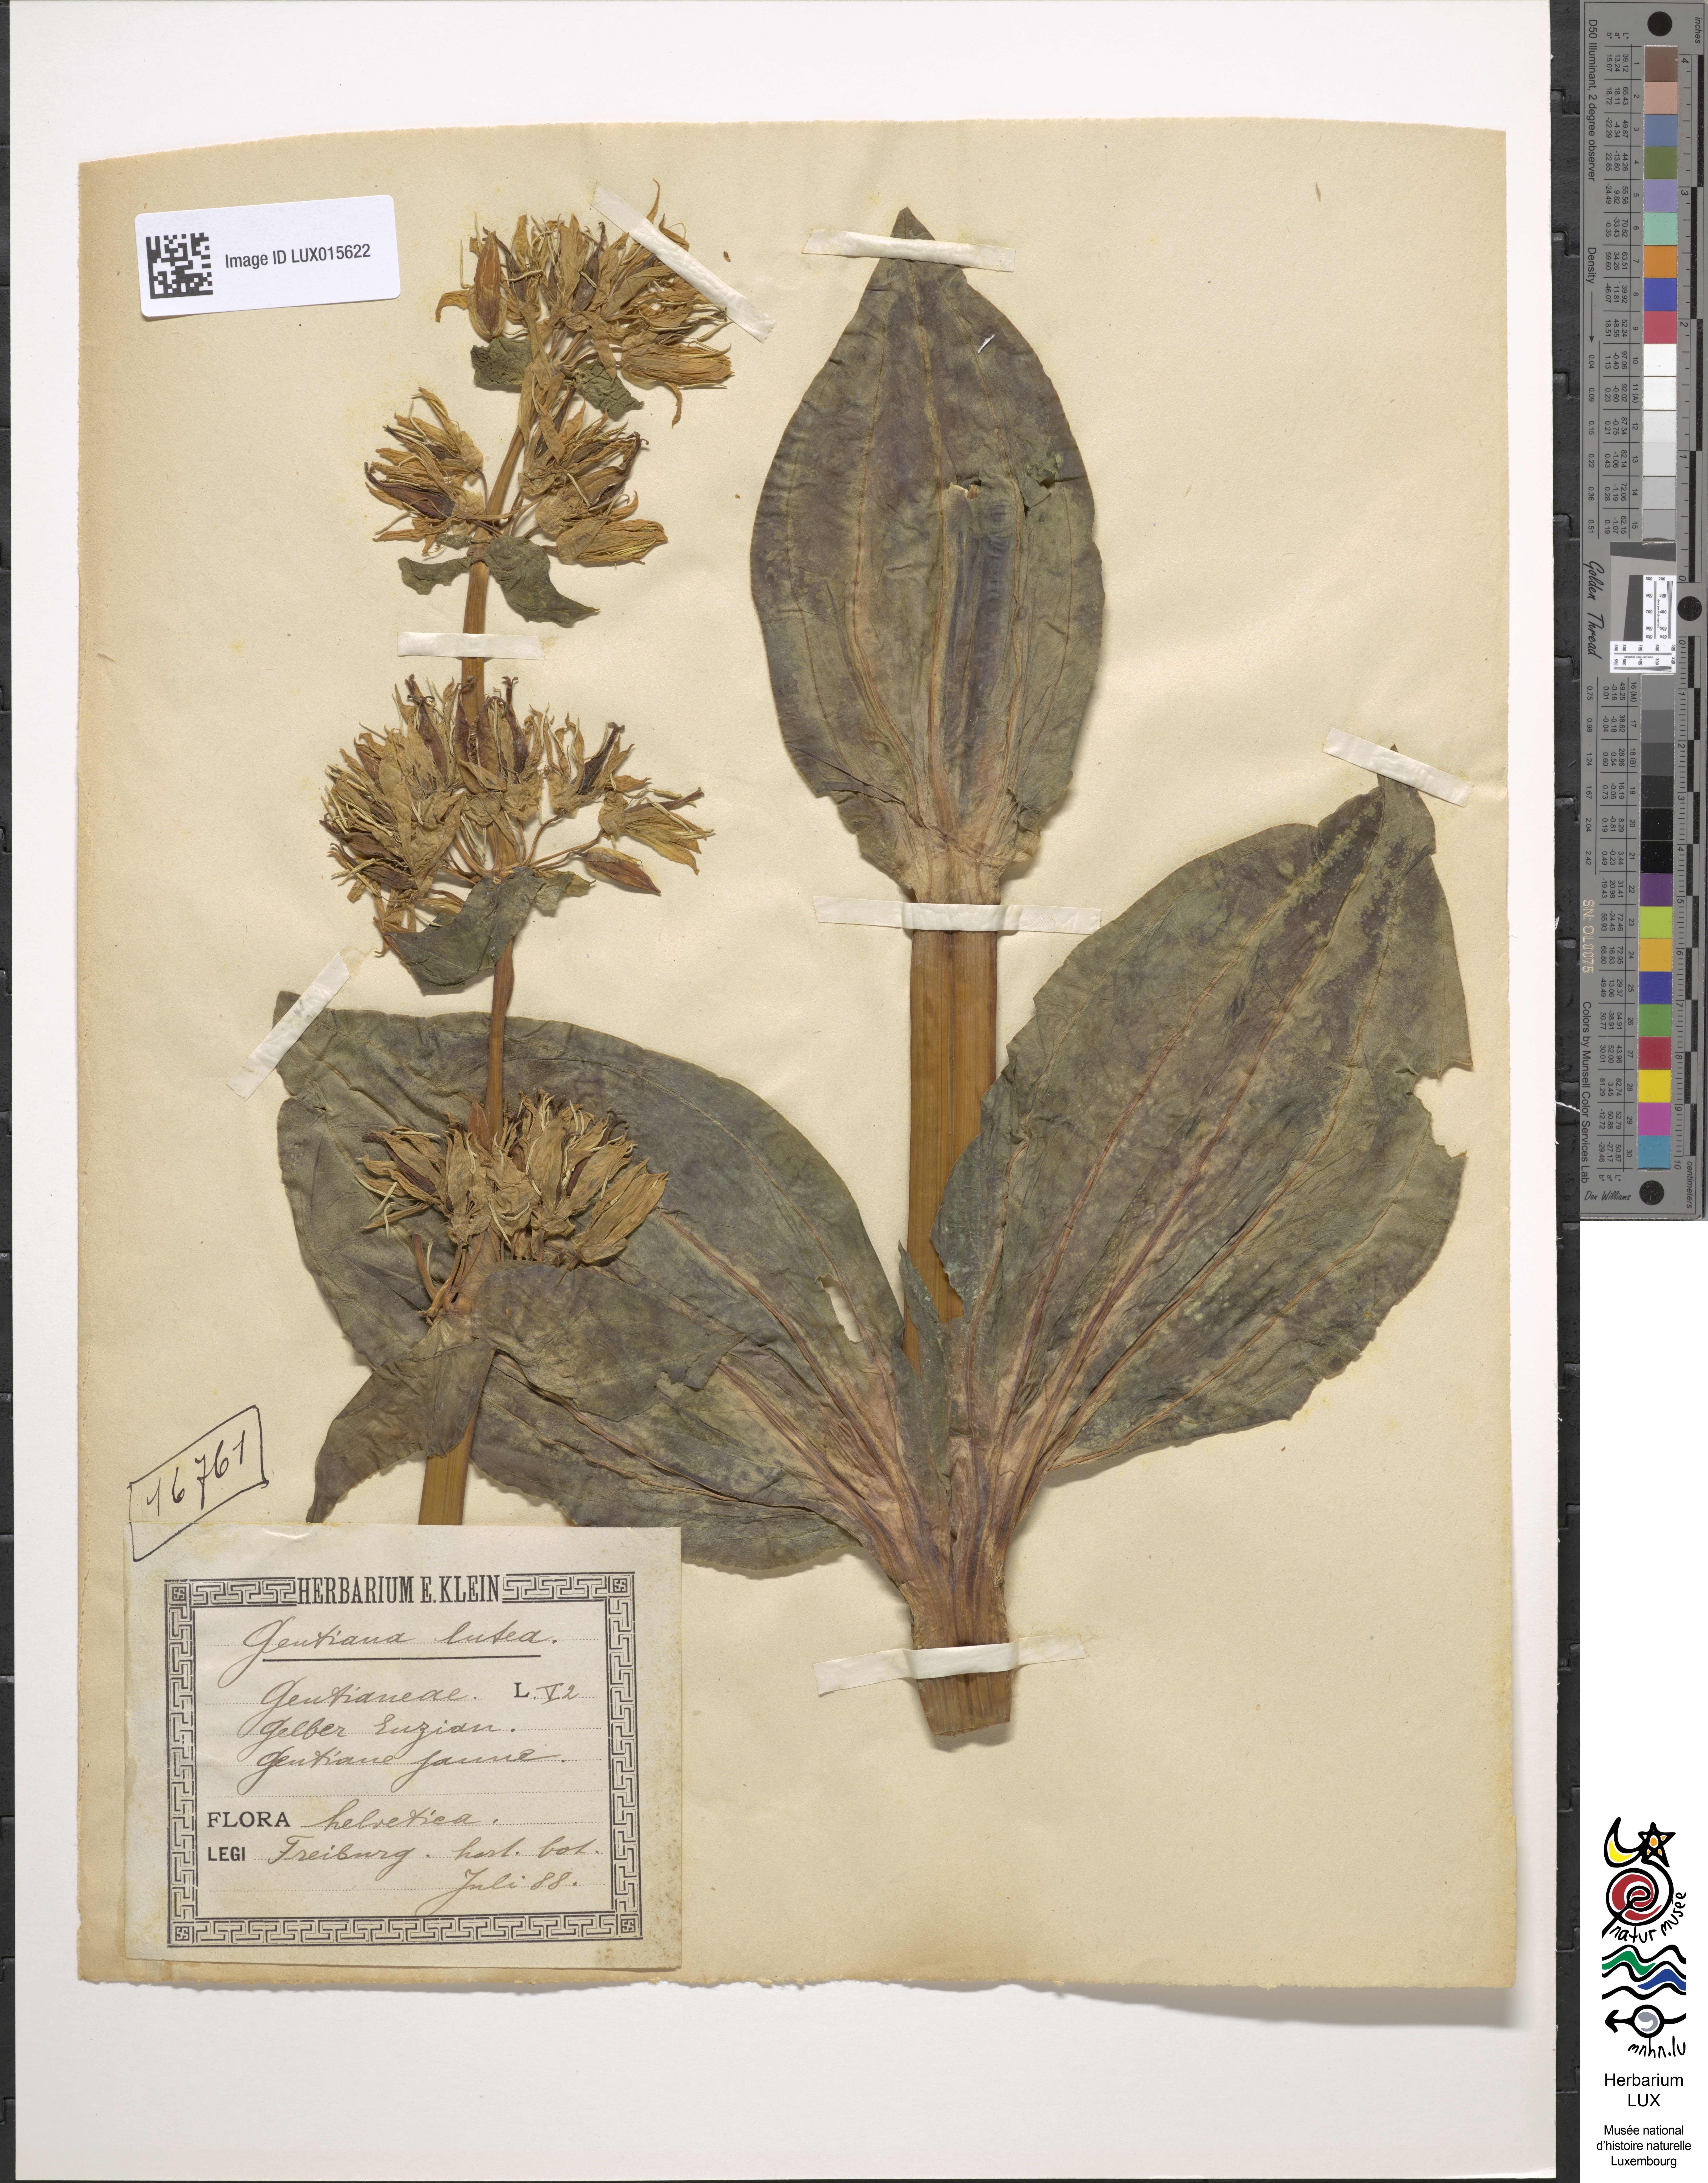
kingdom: Plantae
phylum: Tracheophyta
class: Magnoliopsida
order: Gentianales
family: Gentianaceae
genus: Gentiana
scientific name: Gentiana lutea
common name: Great yellow gentian
